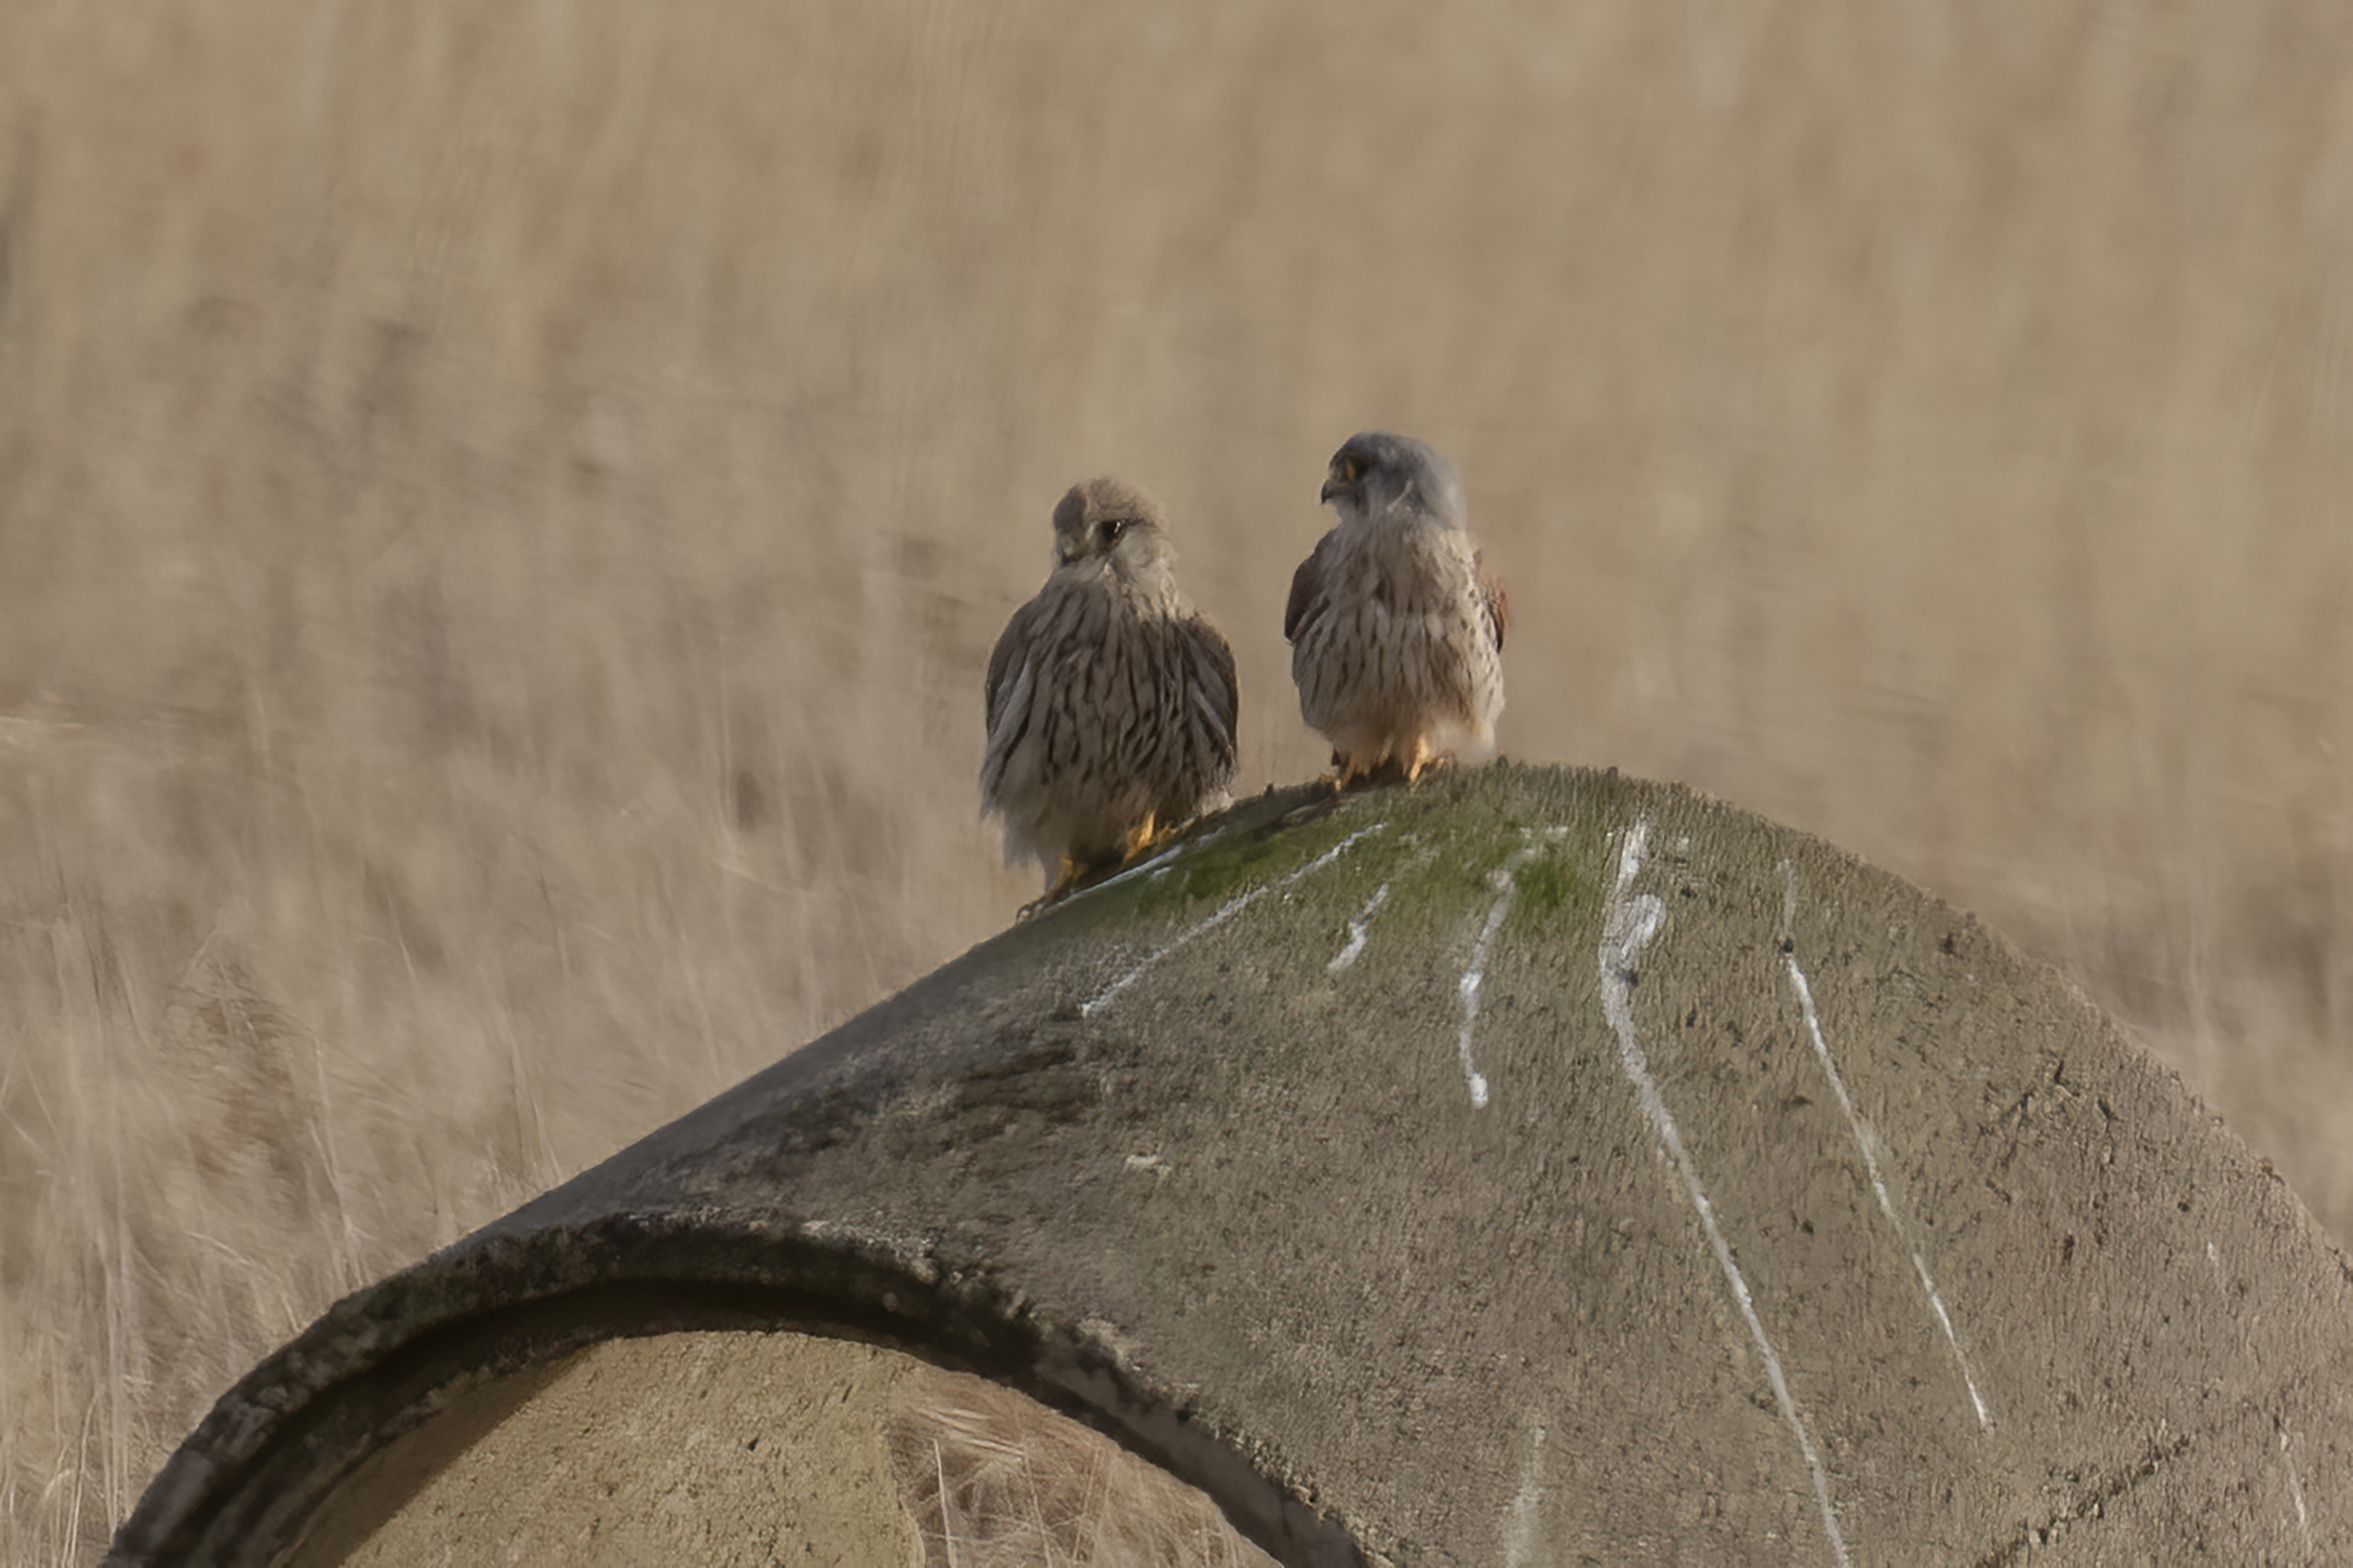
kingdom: Animalia
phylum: Chordata
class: Aves
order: Falconiformes
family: Falconidae
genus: Falco
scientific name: Falco tinnunculus
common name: Tårnfalk
